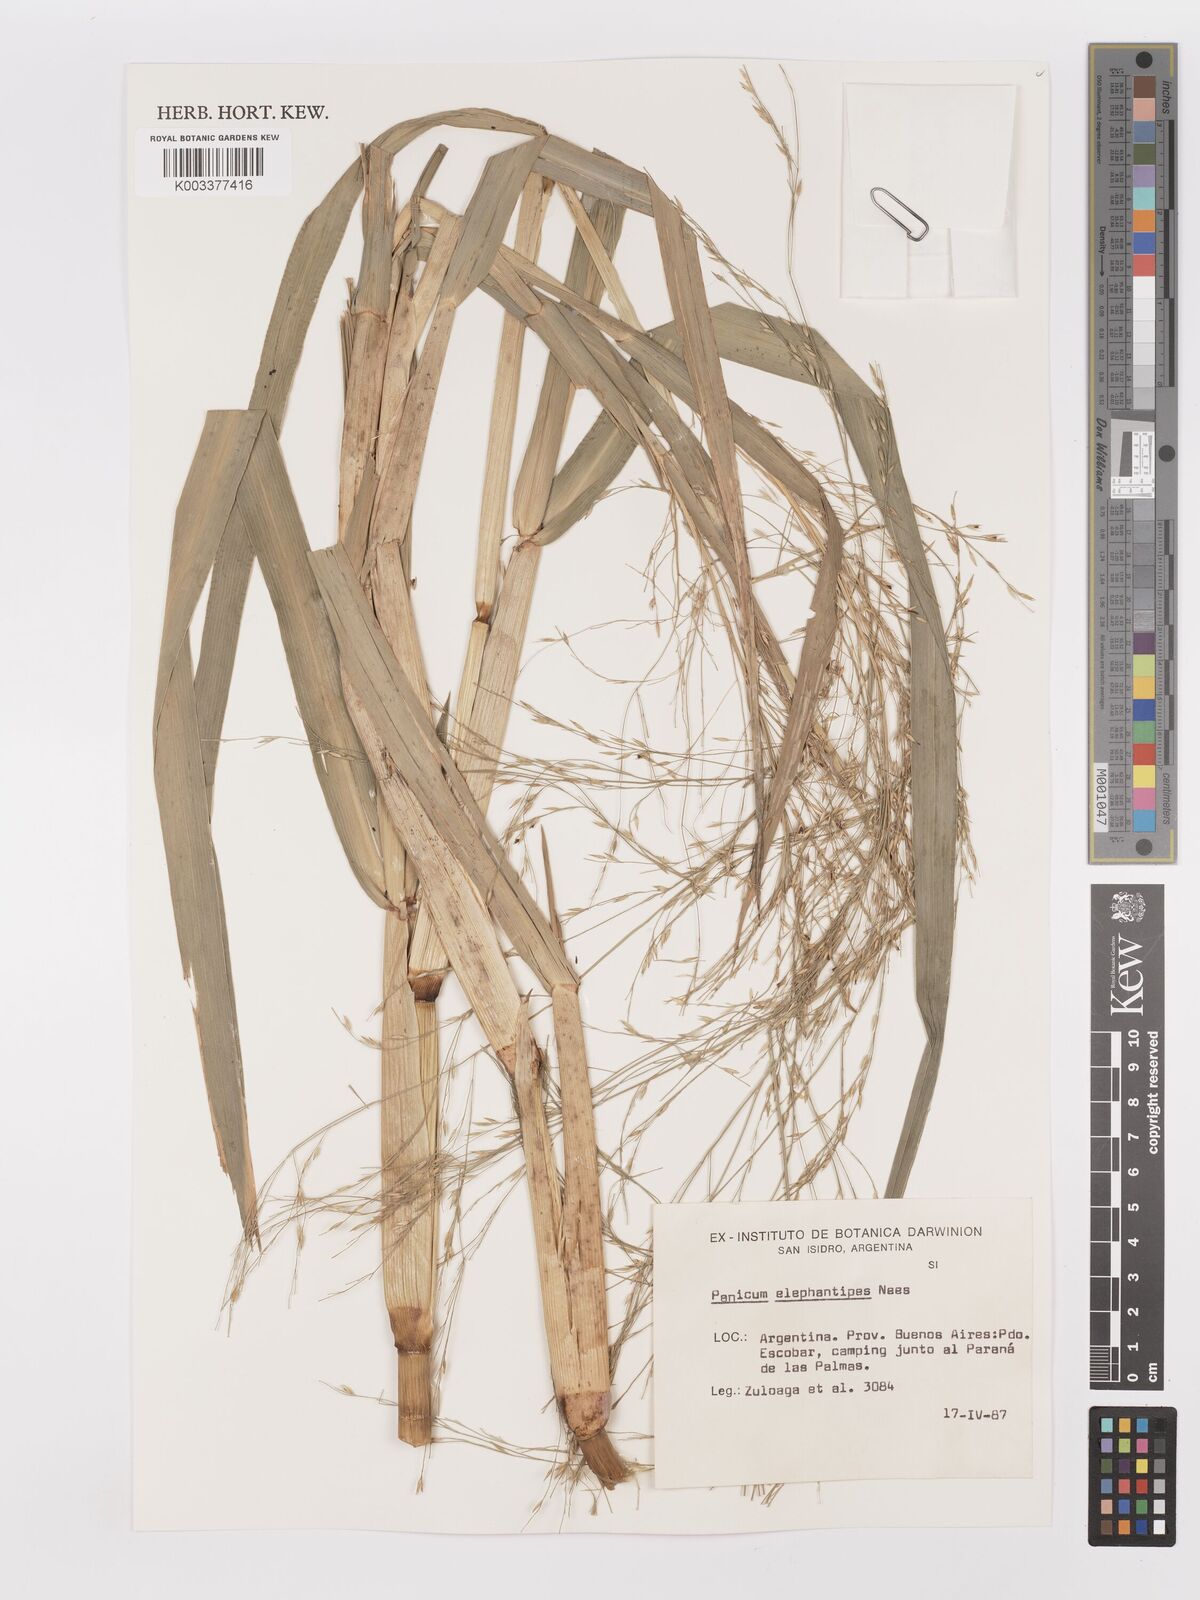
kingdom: Plantae
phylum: Tracheophyta
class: Liliopsida
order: Poales
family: Poaceae
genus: Louisiella
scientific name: Louisiella elephantipes
